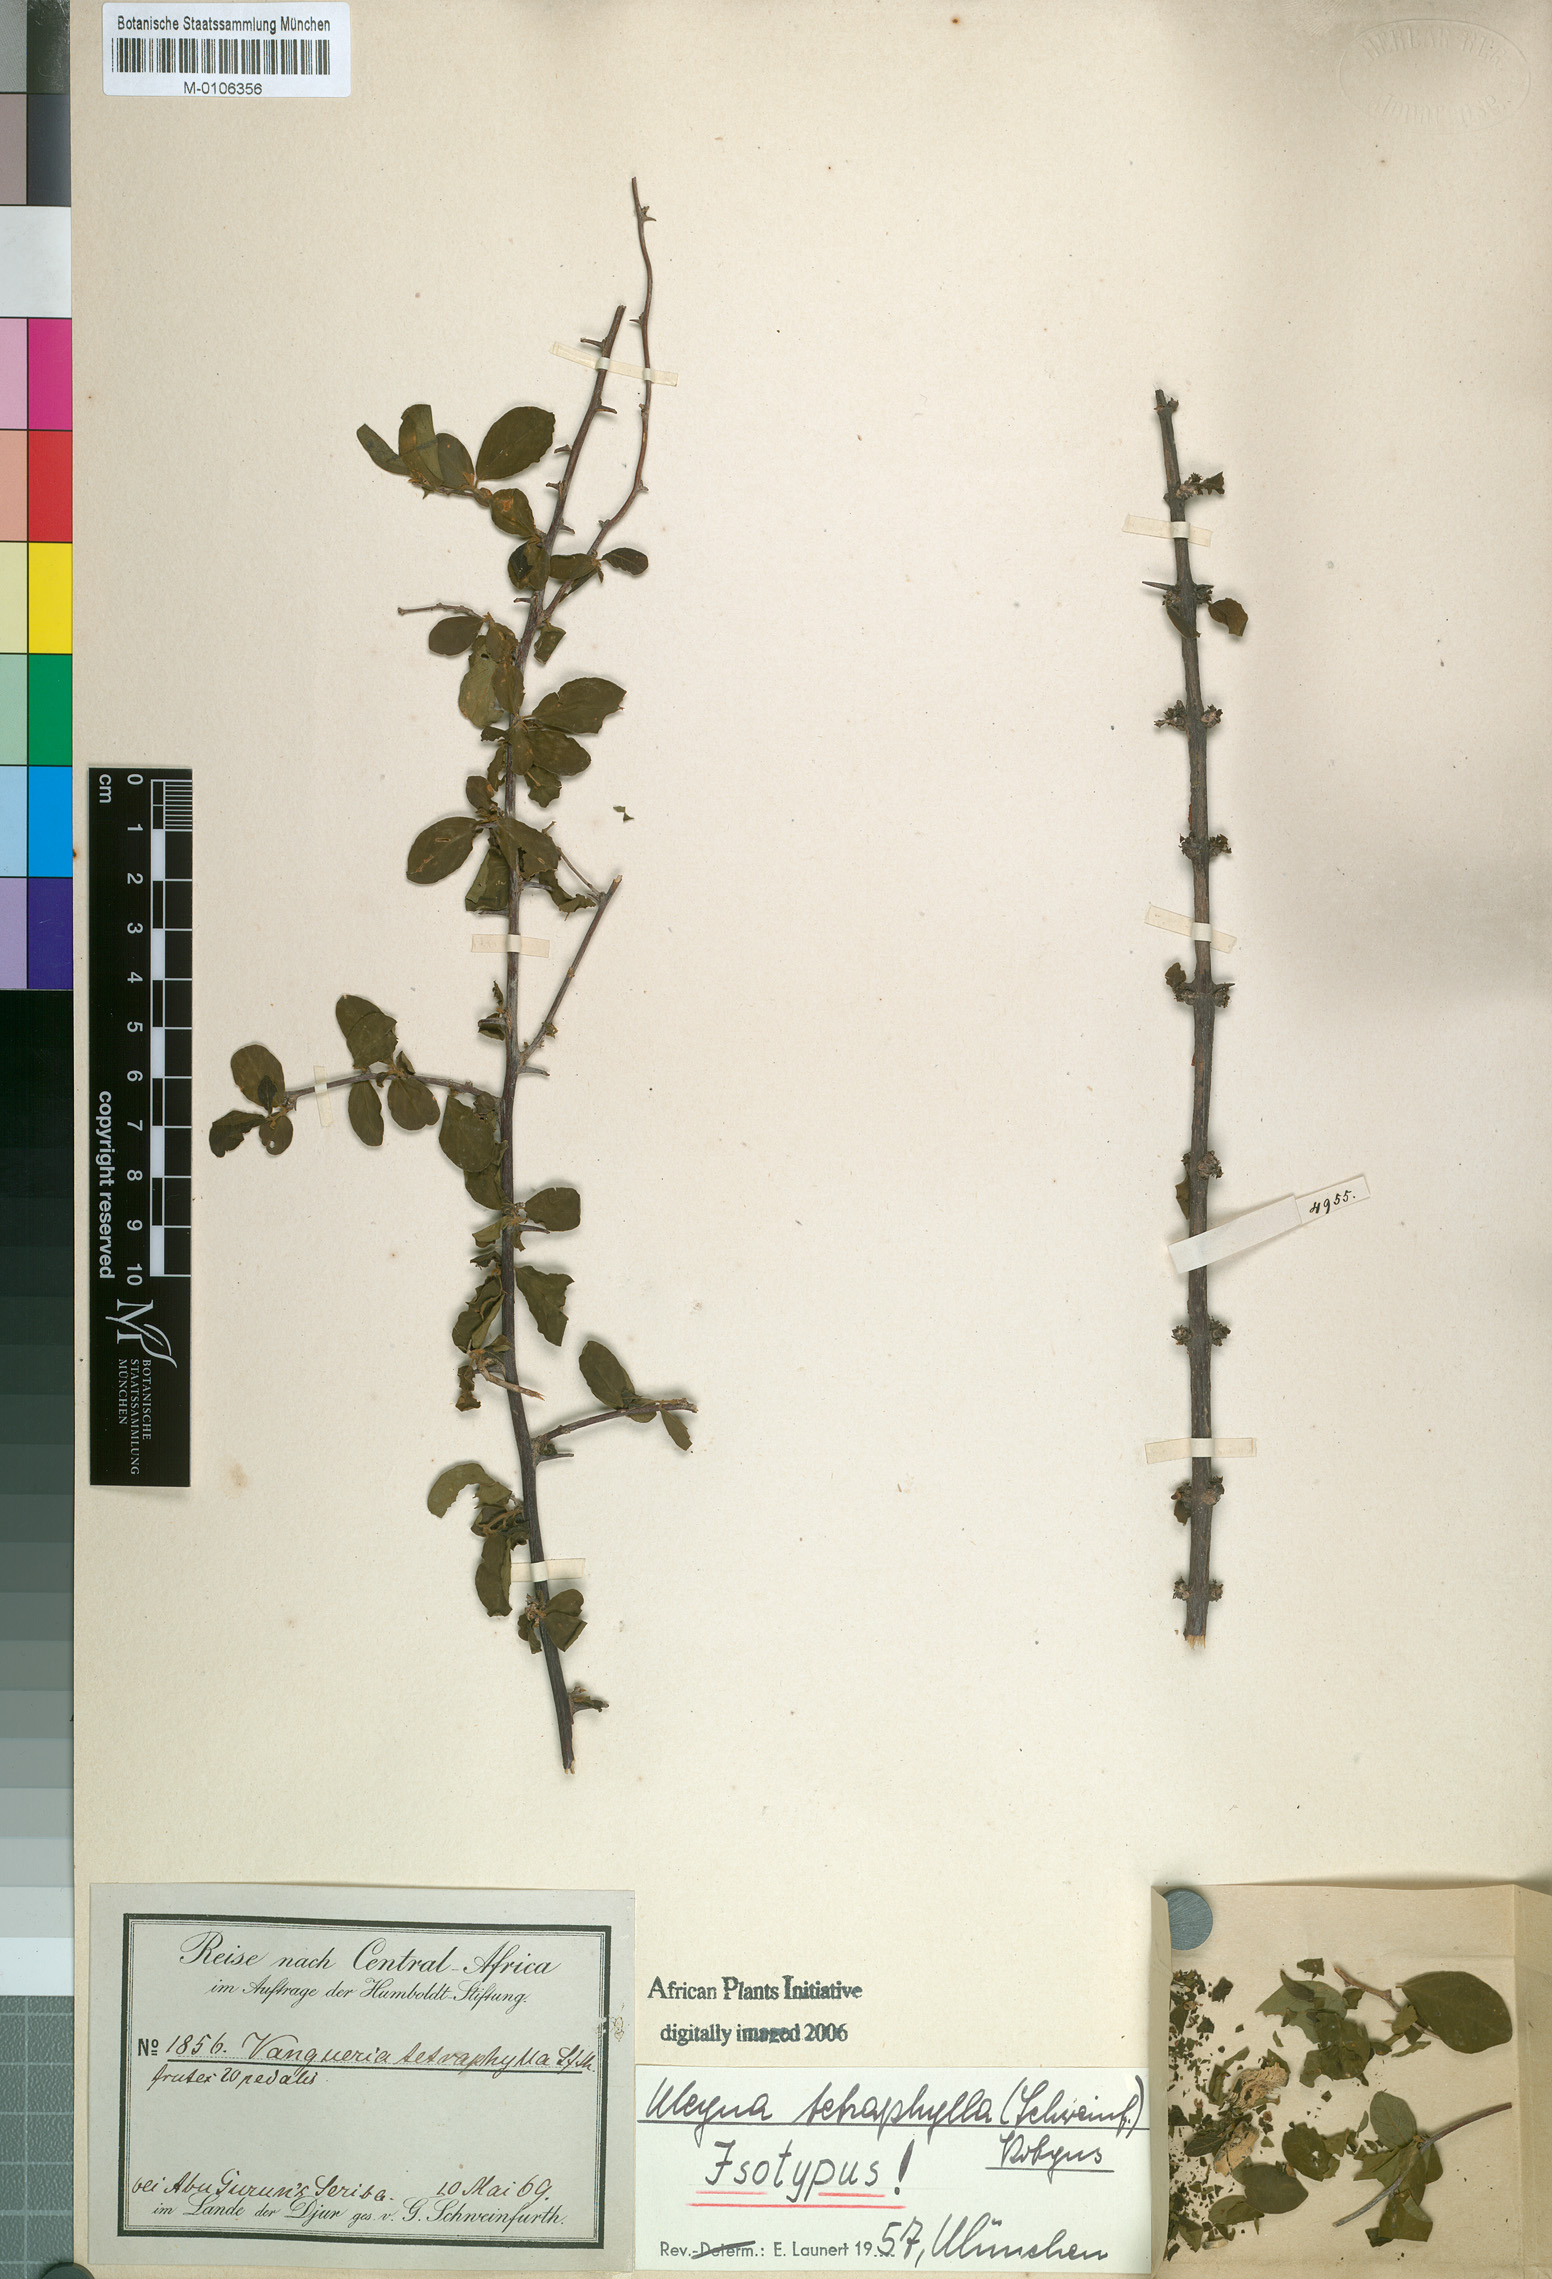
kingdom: Plantae
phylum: Tracheophyta
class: Magnoliopsida
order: Gentianales
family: Rubiaceae
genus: Meyna
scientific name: Meyna tetraphylla
